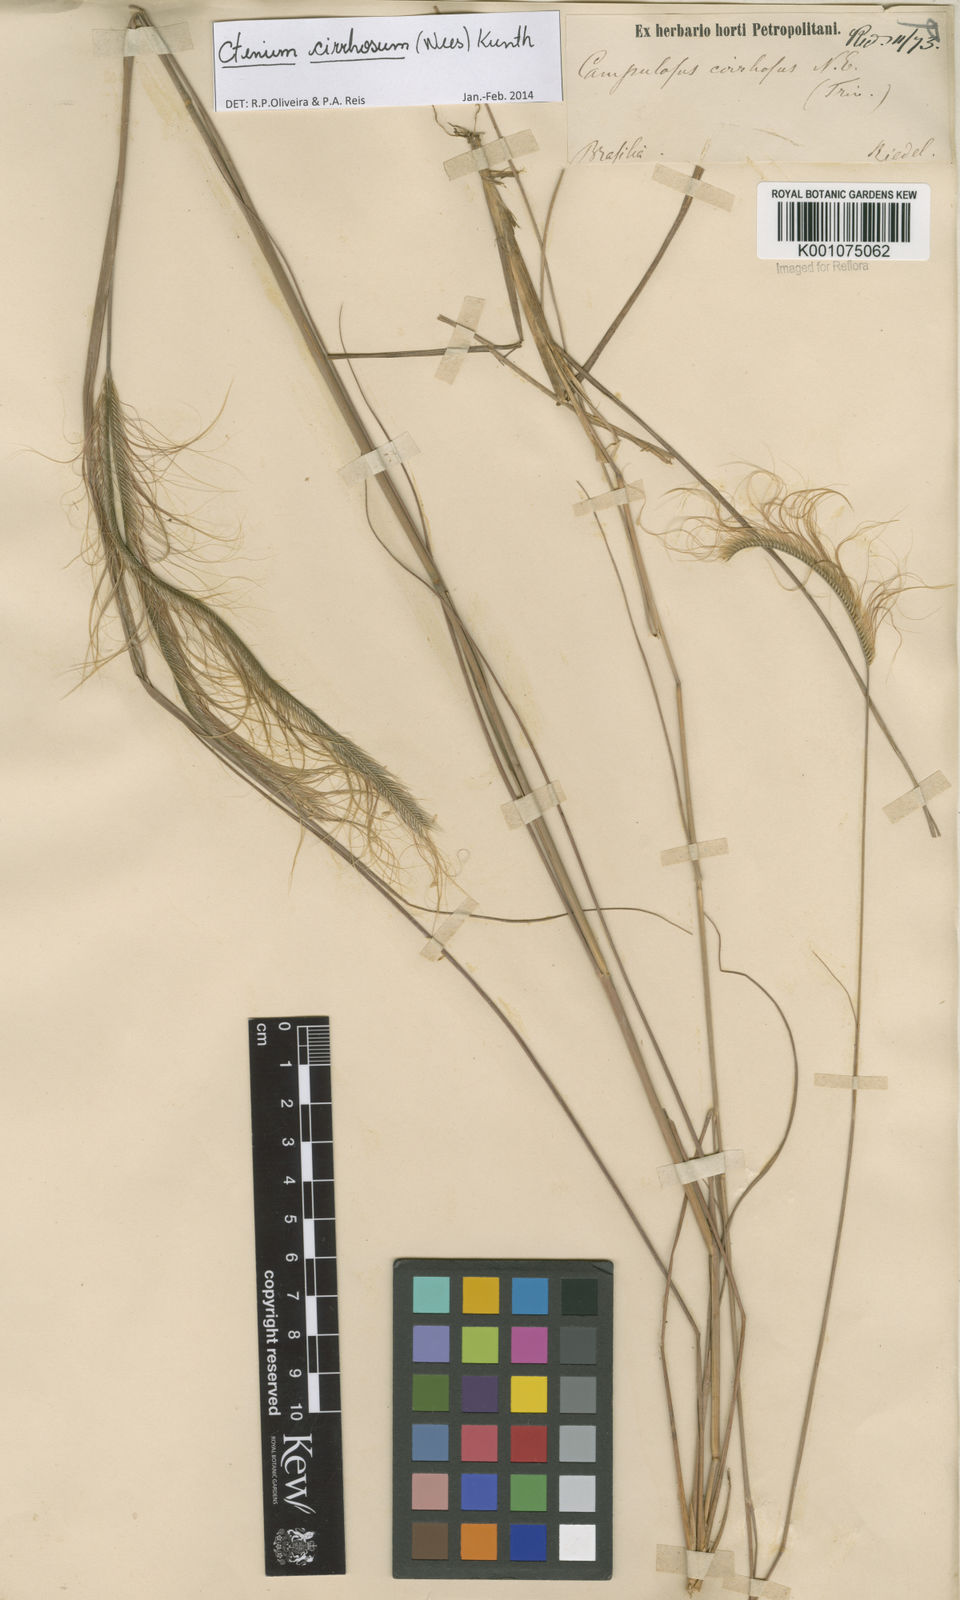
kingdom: Plantae
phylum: Tracheophyta
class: Liliopsida
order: Poales
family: Poaceae
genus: Ctenium
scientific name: Ctenium cirrhosum
